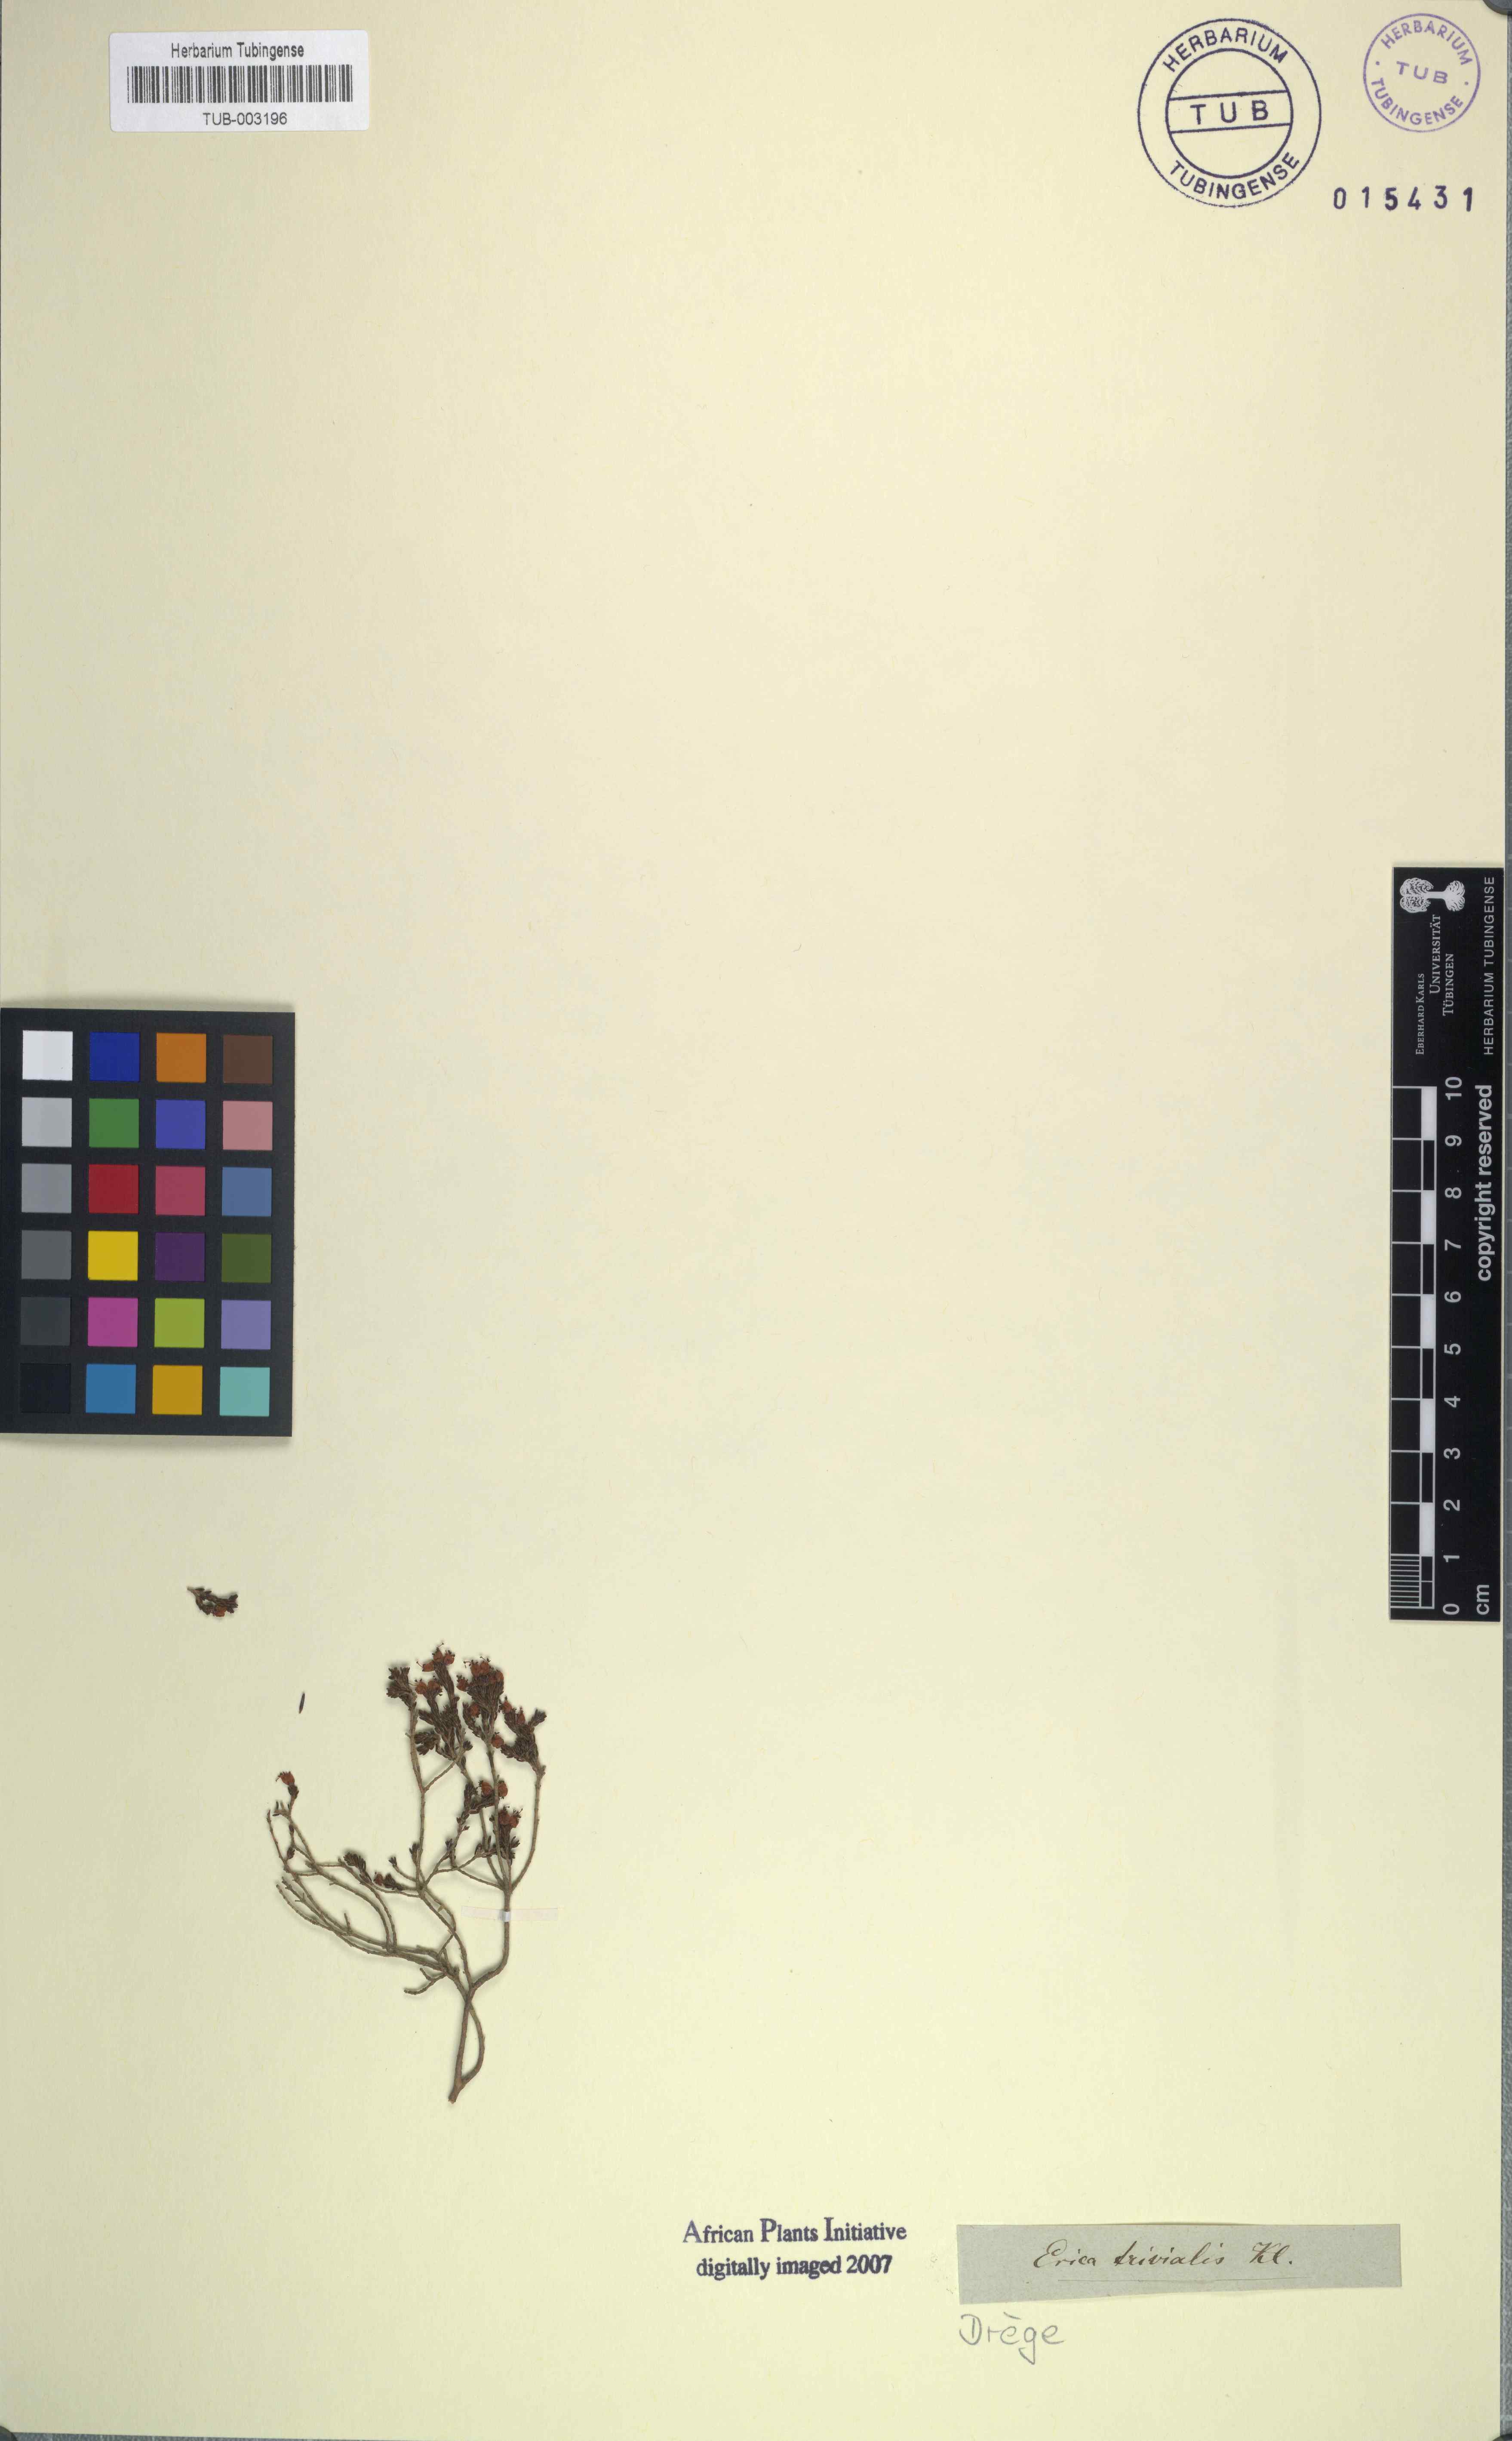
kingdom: Plantae
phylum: Tracheophyta
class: Magnoliopsida
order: Ericales
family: Ericaceae
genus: Erica
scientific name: Erica trivialis
